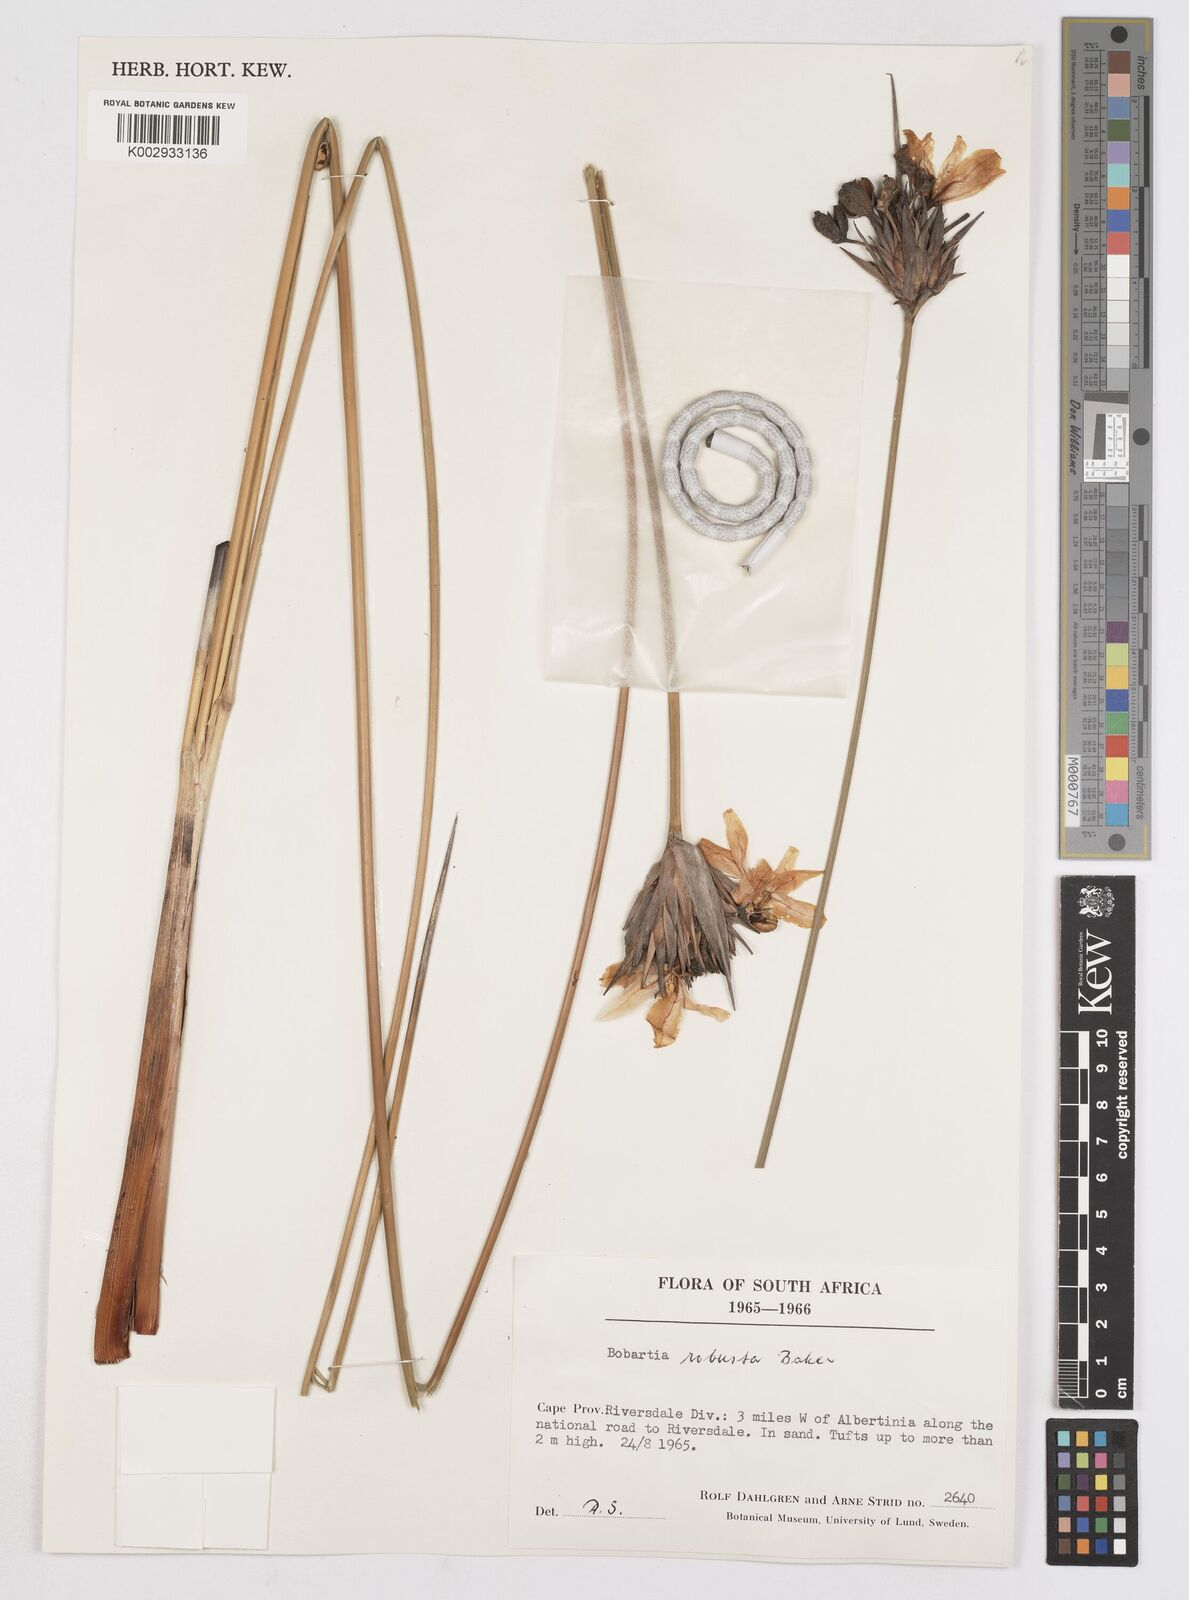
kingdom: Plantae
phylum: Tracheophyta
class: Liliopsida
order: Asparagales
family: Iridaceae
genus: Bobartia
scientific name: Bobartia robusta
